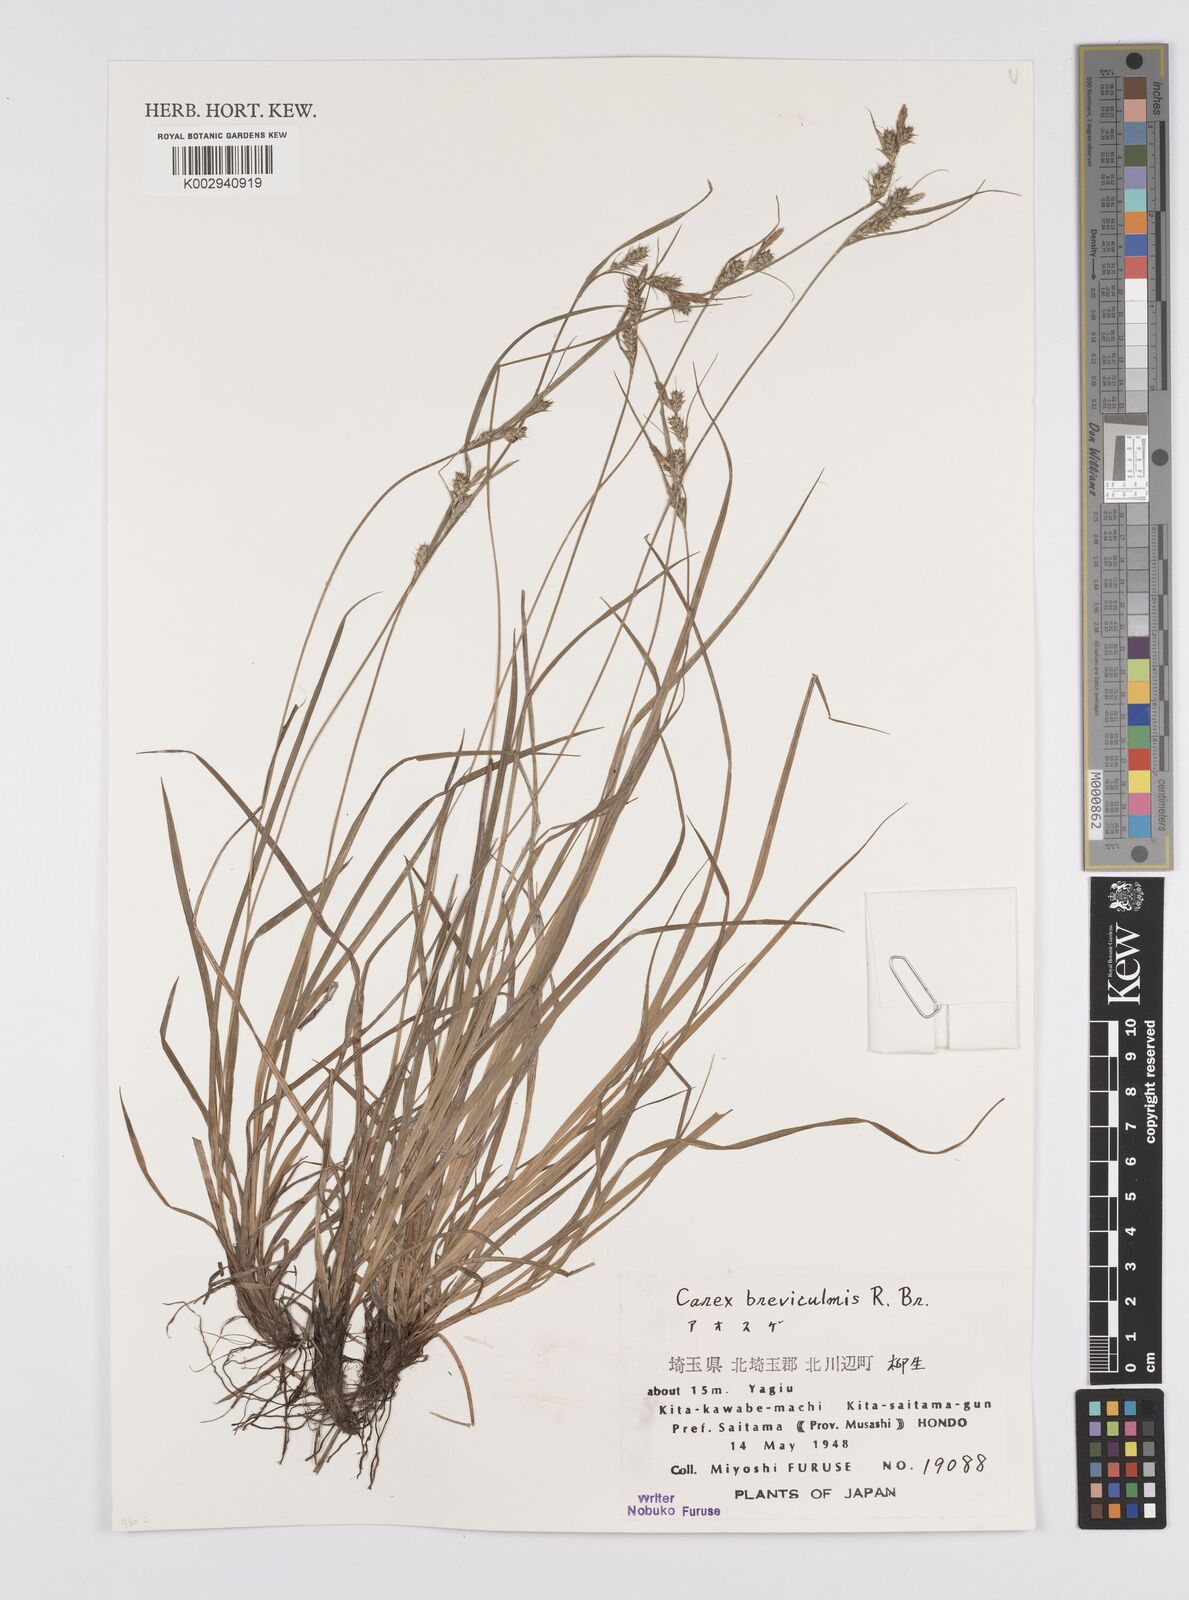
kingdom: Plantae
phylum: Tracheophyta
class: Liliopsida
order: Poales
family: Cyperaceae
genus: Carex
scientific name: Carex breviculmis
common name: Asian shortstem sedge
